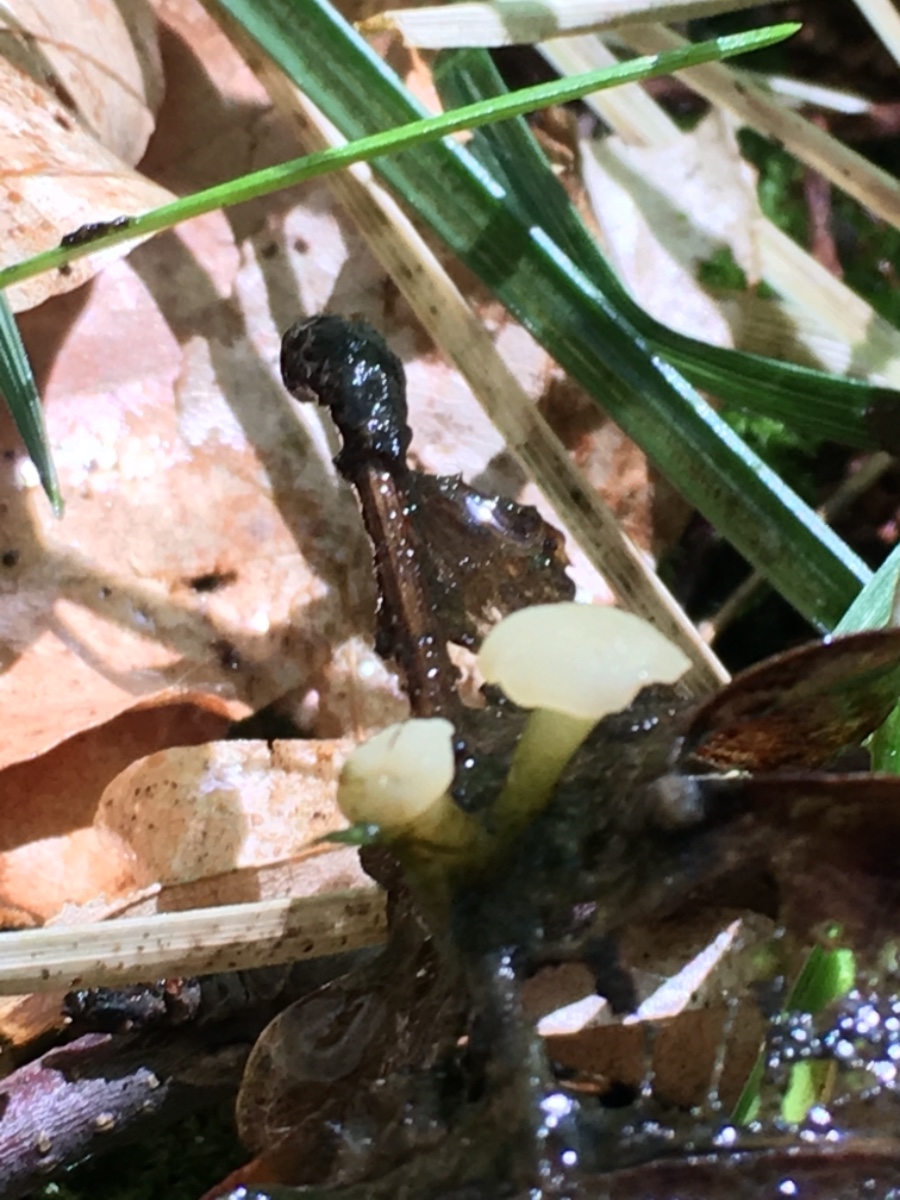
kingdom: Fungi
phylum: Ascomycota
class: Leotiomycetes
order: Helotiales
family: Tricladiaceae
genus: Cudoniella
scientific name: Cudoniella clavus
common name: stor dyndskive
